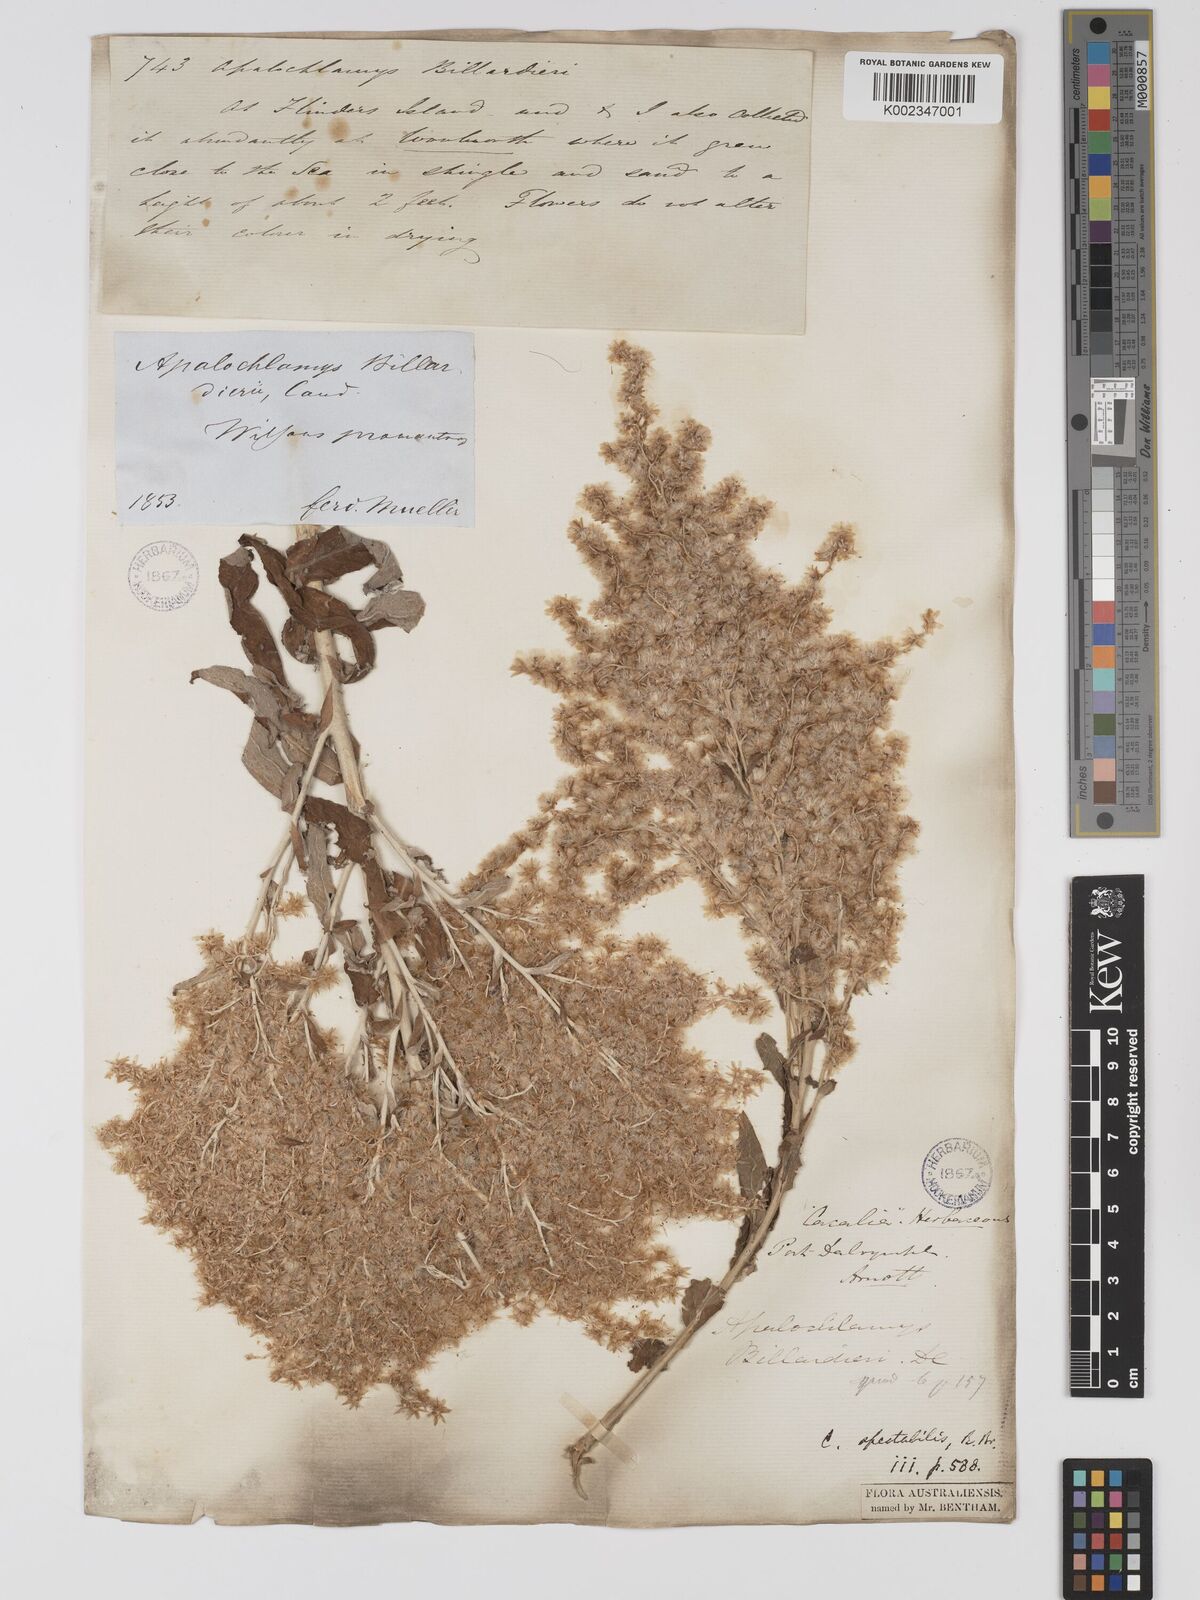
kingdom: Plantae
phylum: Tracheophyta
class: Magnoliopsida
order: Asterales
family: Asteraceae
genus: Apalochlamys
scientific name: Apalochlamys spectabilis
